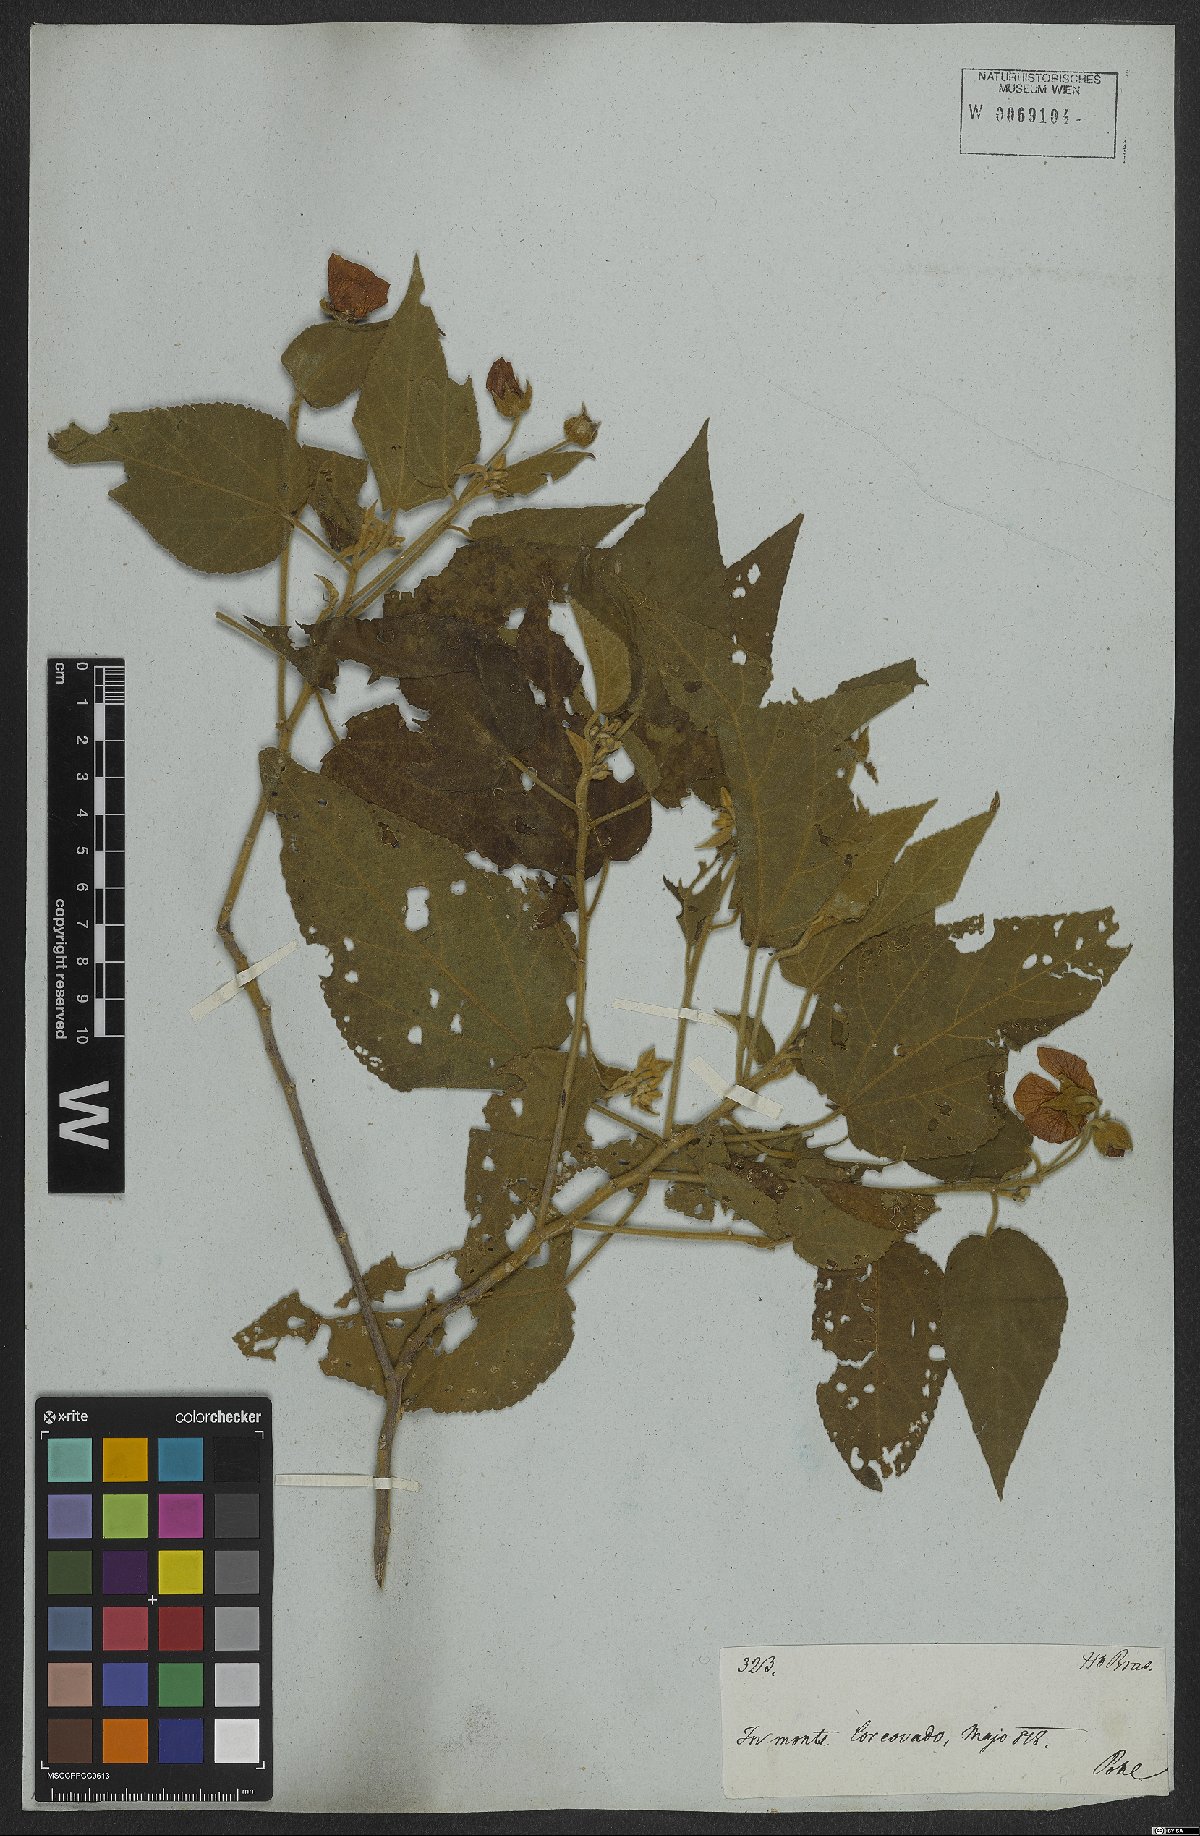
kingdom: Plantae
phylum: Tracheophyta
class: Magnoliopsida
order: Malvales
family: Malvaceae
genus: Bakeridesia
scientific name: Bakeridesia esculenta
